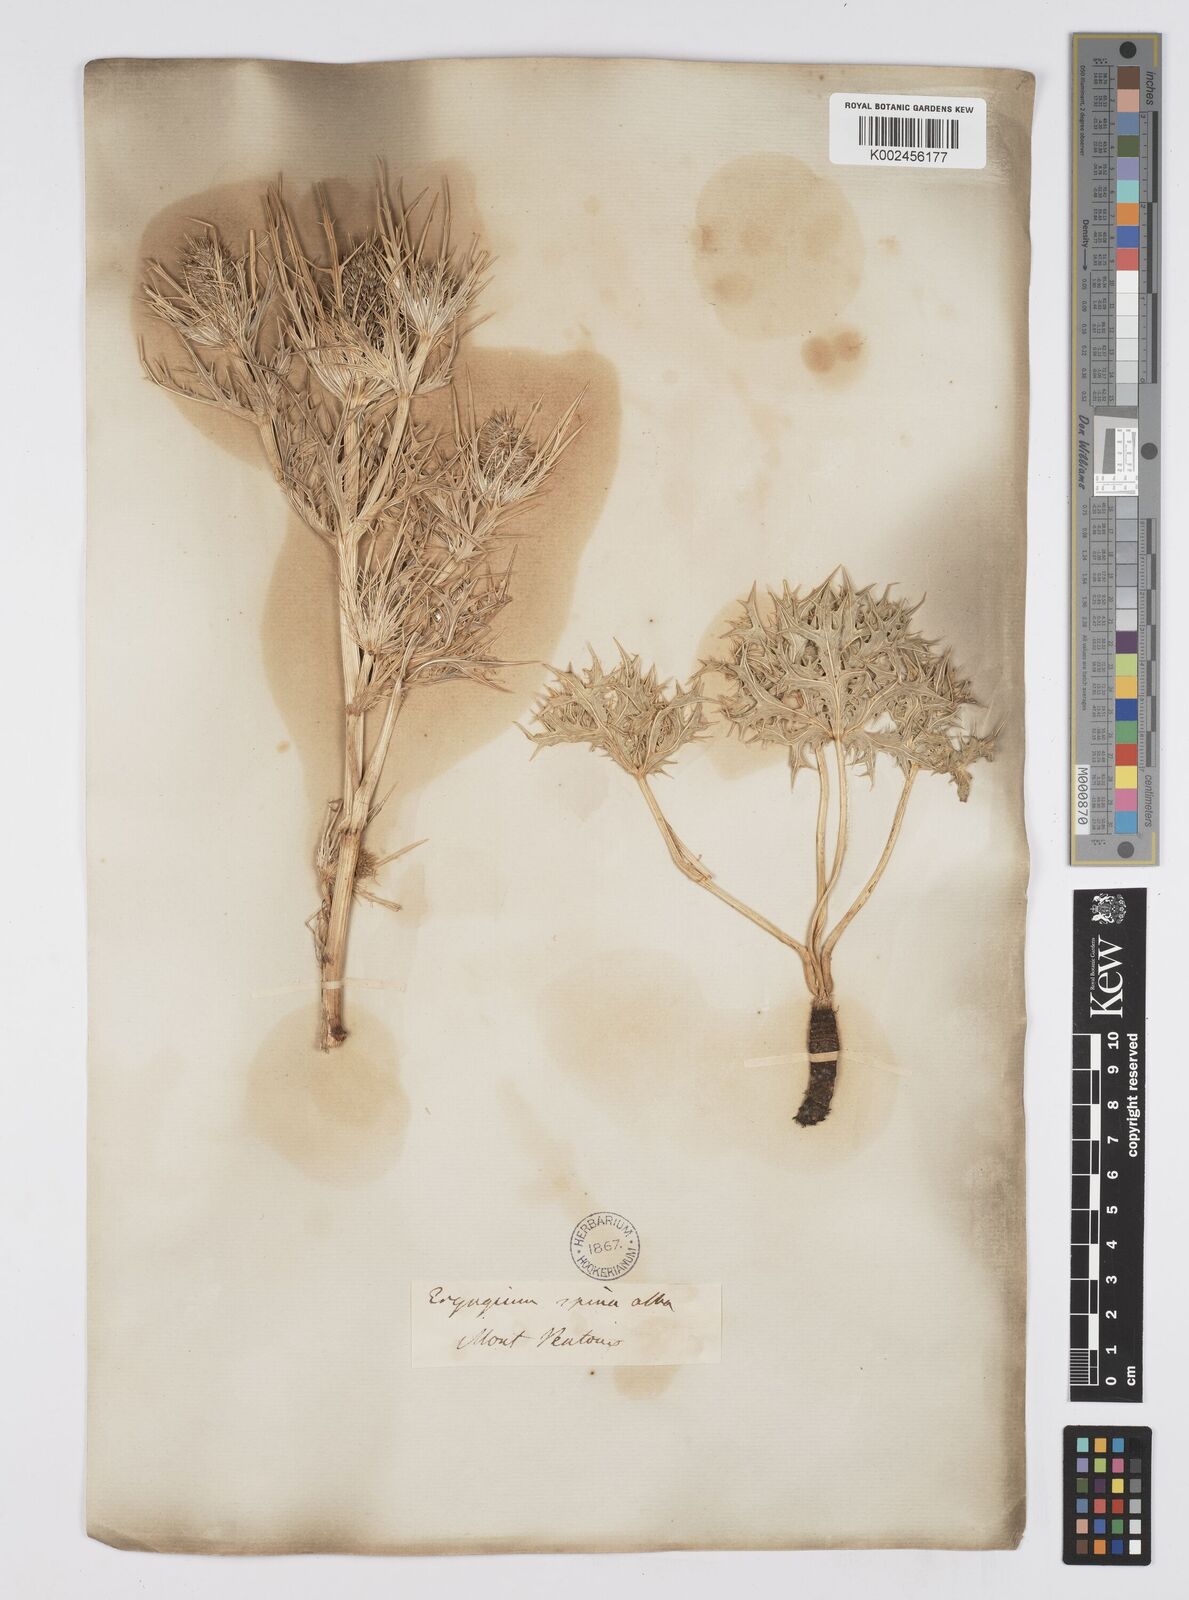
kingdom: Plantae
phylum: Tracheophyta
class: Magnoliopsida
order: Apiales
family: Apiaceae
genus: Eryngium
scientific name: Eryngium spinalba
